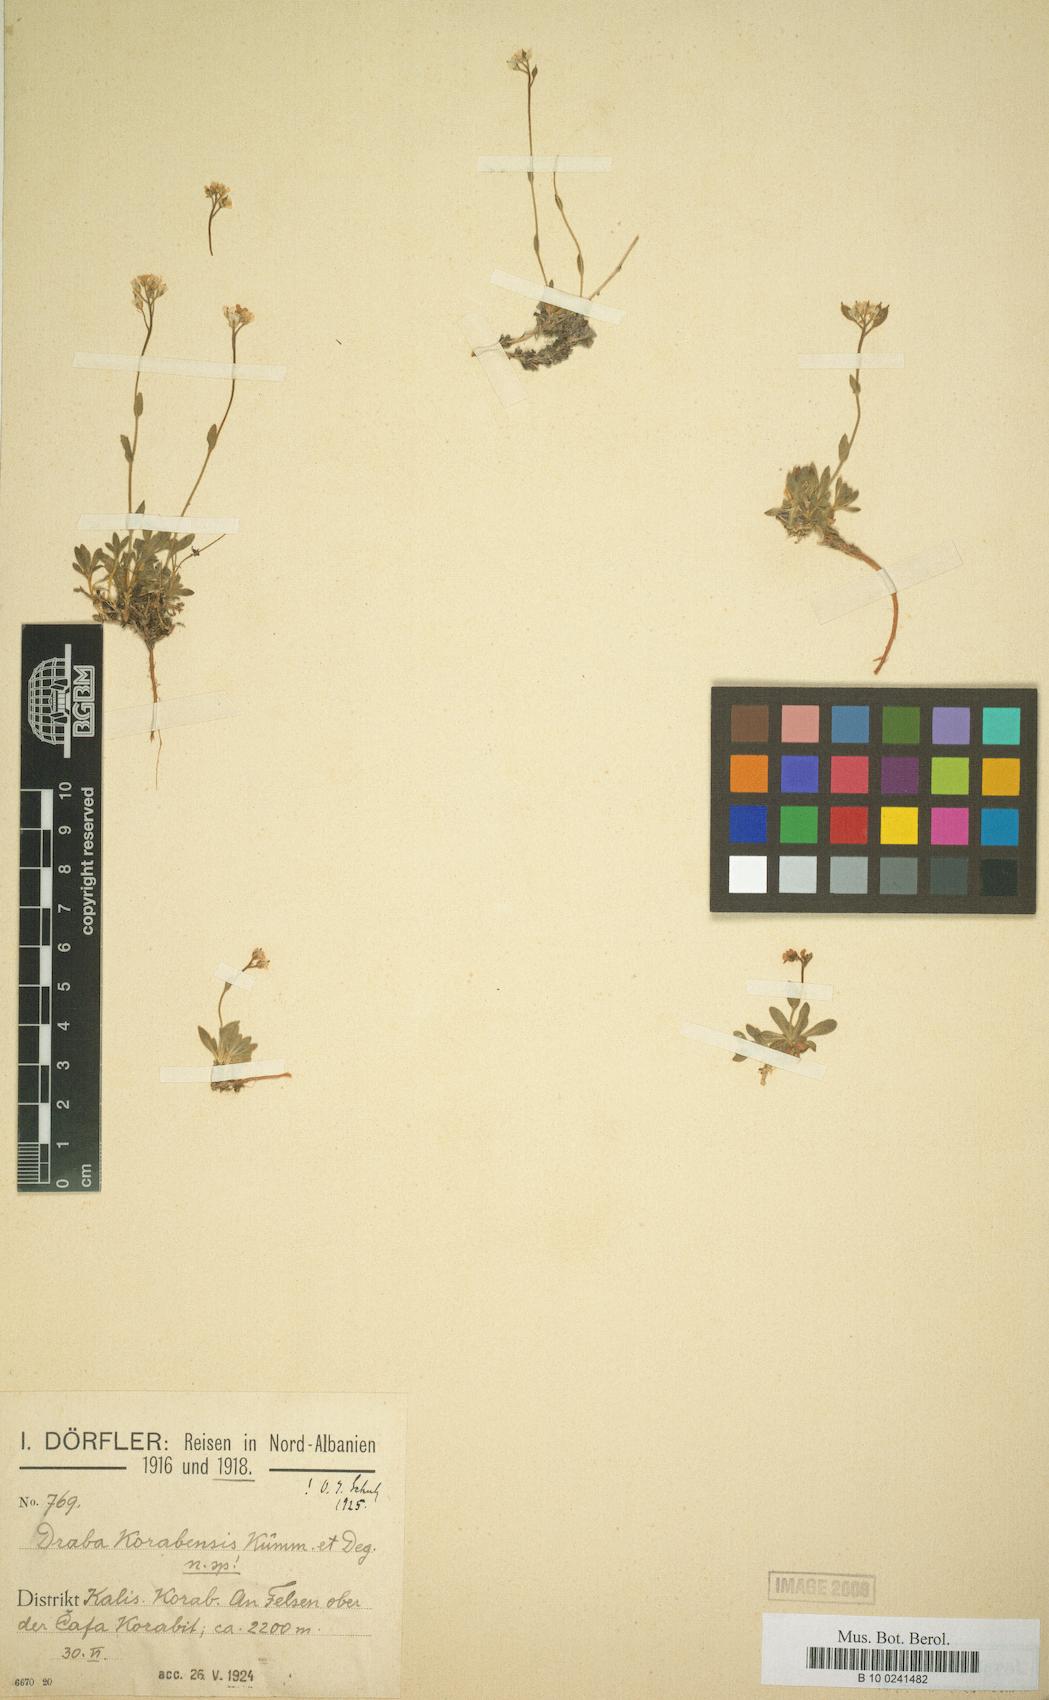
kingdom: Plantae
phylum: Tracheophyta
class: Magnoliopsida
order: Brassicales
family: Brassicaceae
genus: Draba
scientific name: Draba korabensis
